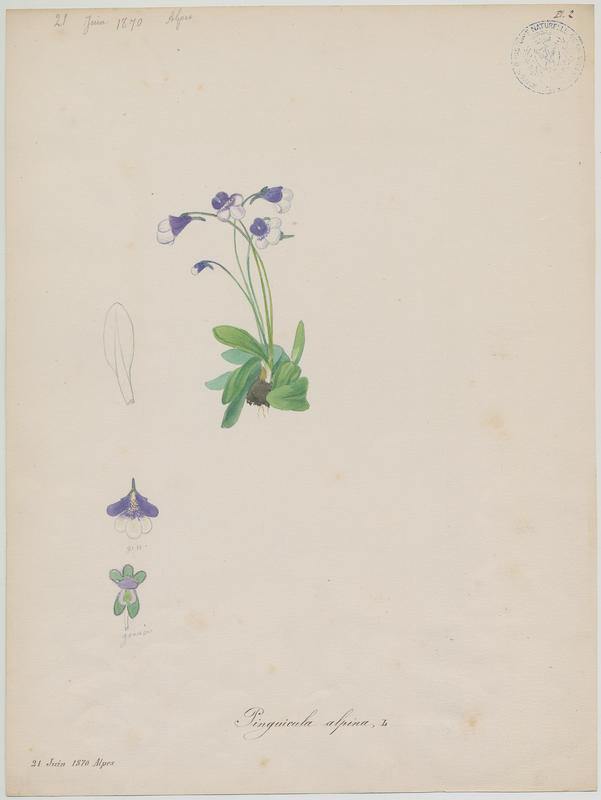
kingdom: Plantae
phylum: Tracheophyta
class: Magnoliopsida
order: Lamiales
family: Lentibulariaceae
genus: Pinguicula
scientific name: Pinguicula alpina
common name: Alpine butterwort
